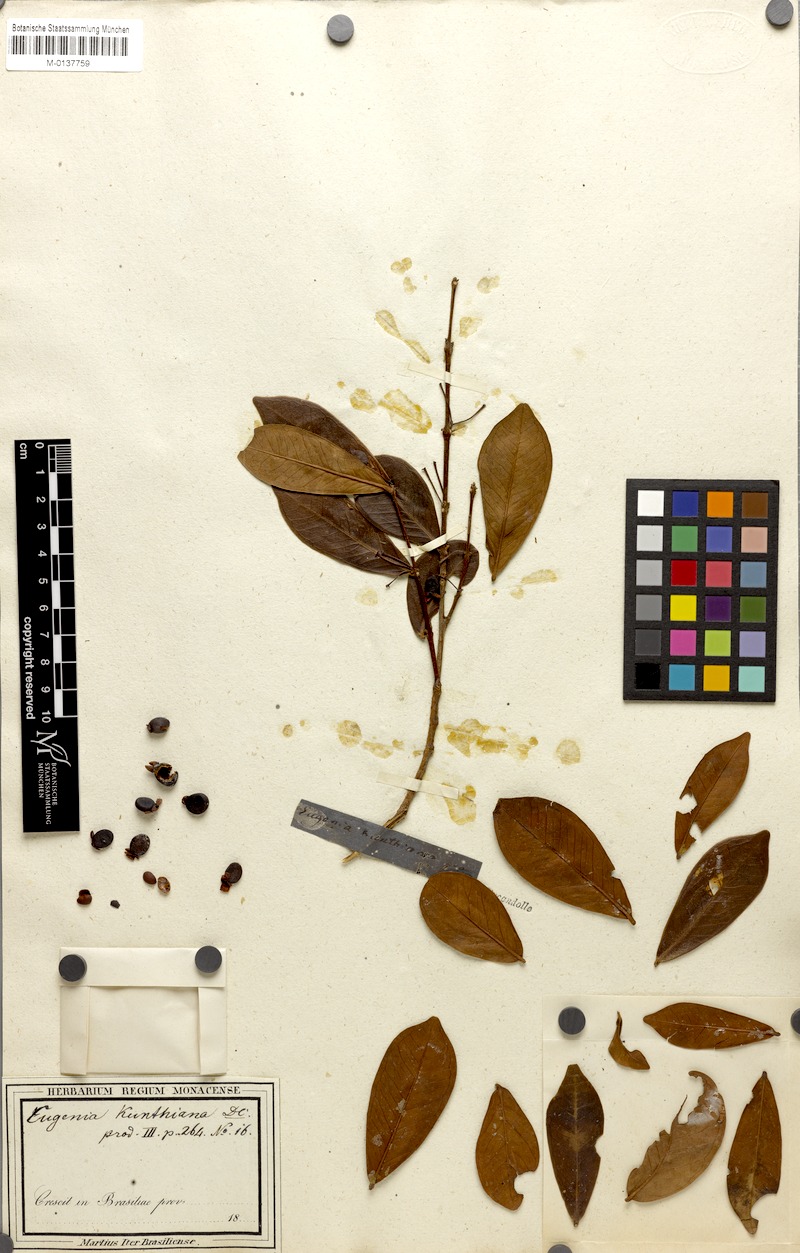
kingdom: Plantae
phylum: Tracheophyta
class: Magnoliopsida
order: Myrtales
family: Myrtaceae
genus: Eugenia
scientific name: Eugenia punicifolia
